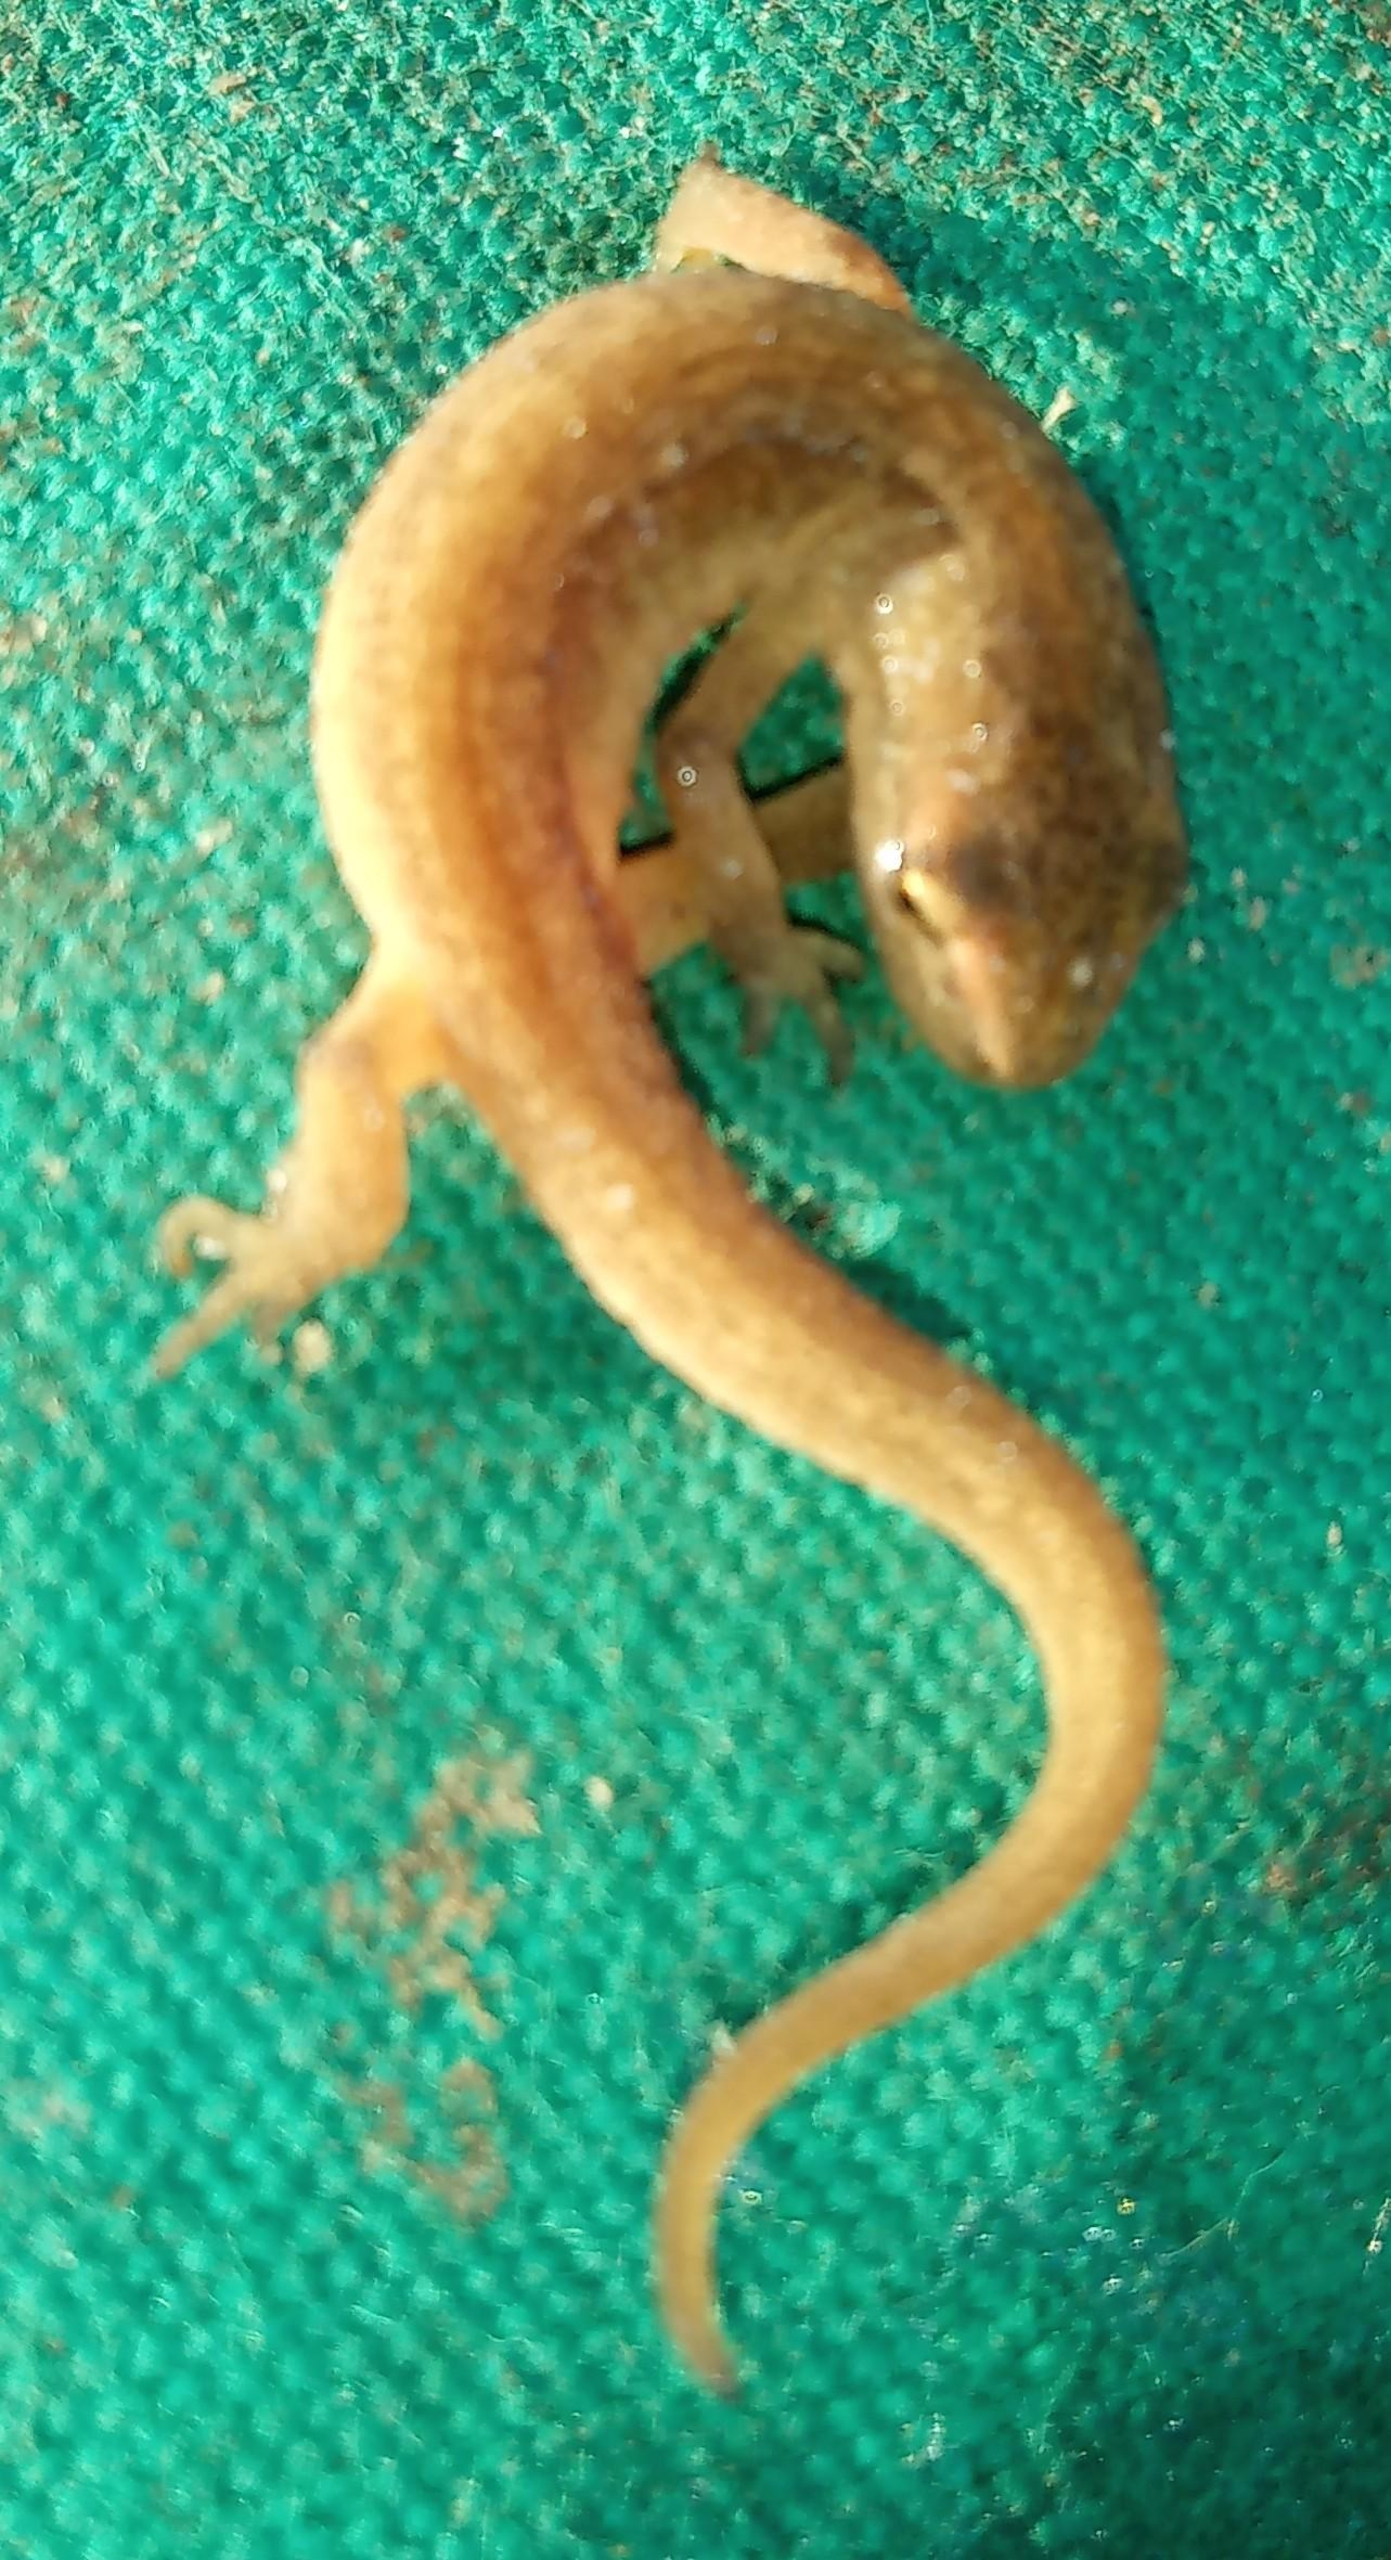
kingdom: Animalia
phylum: Chordata
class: Amphibia
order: Caudata
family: Salamandridae
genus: Lissotriton
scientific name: Lissotriton vulgaris
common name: Lille vandsalamander
